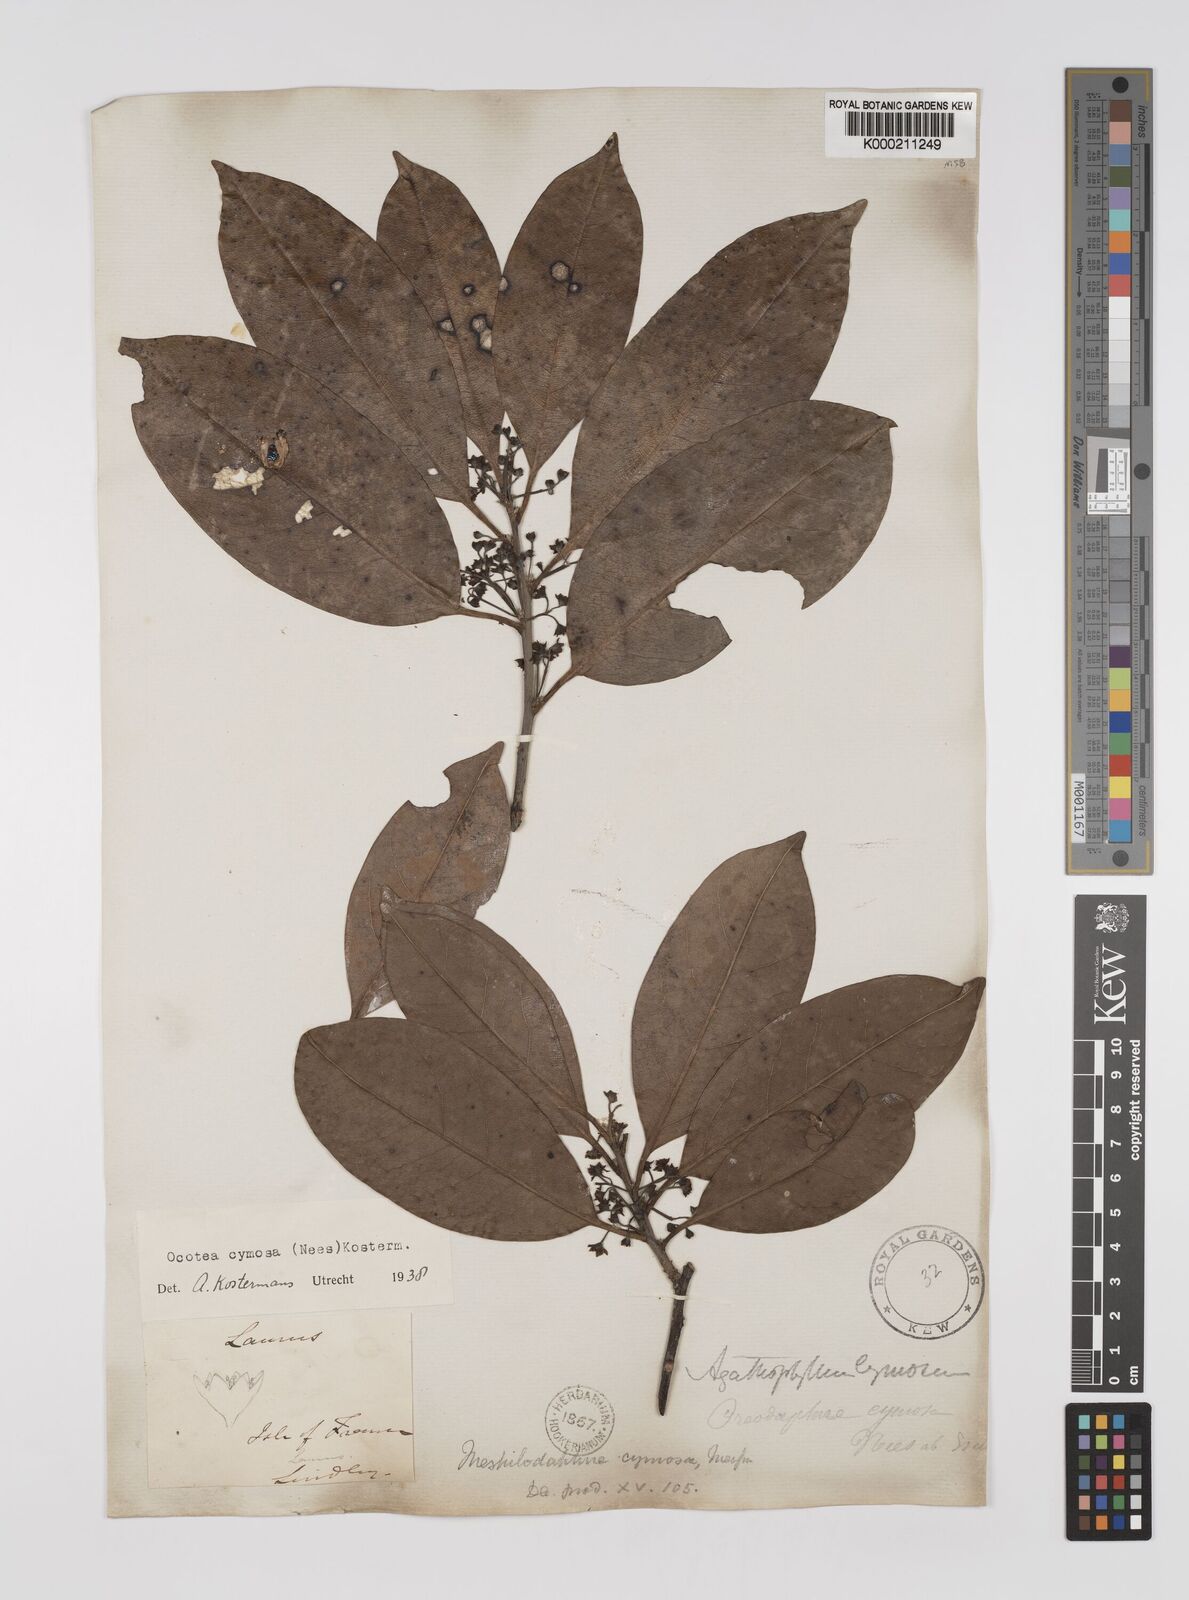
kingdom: Plantae
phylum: Tracheophyta
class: Magnoliopsida
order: Laurales
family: Lauraceae
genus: Mespilodaphne
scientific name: Mespilodaphne cymosa
